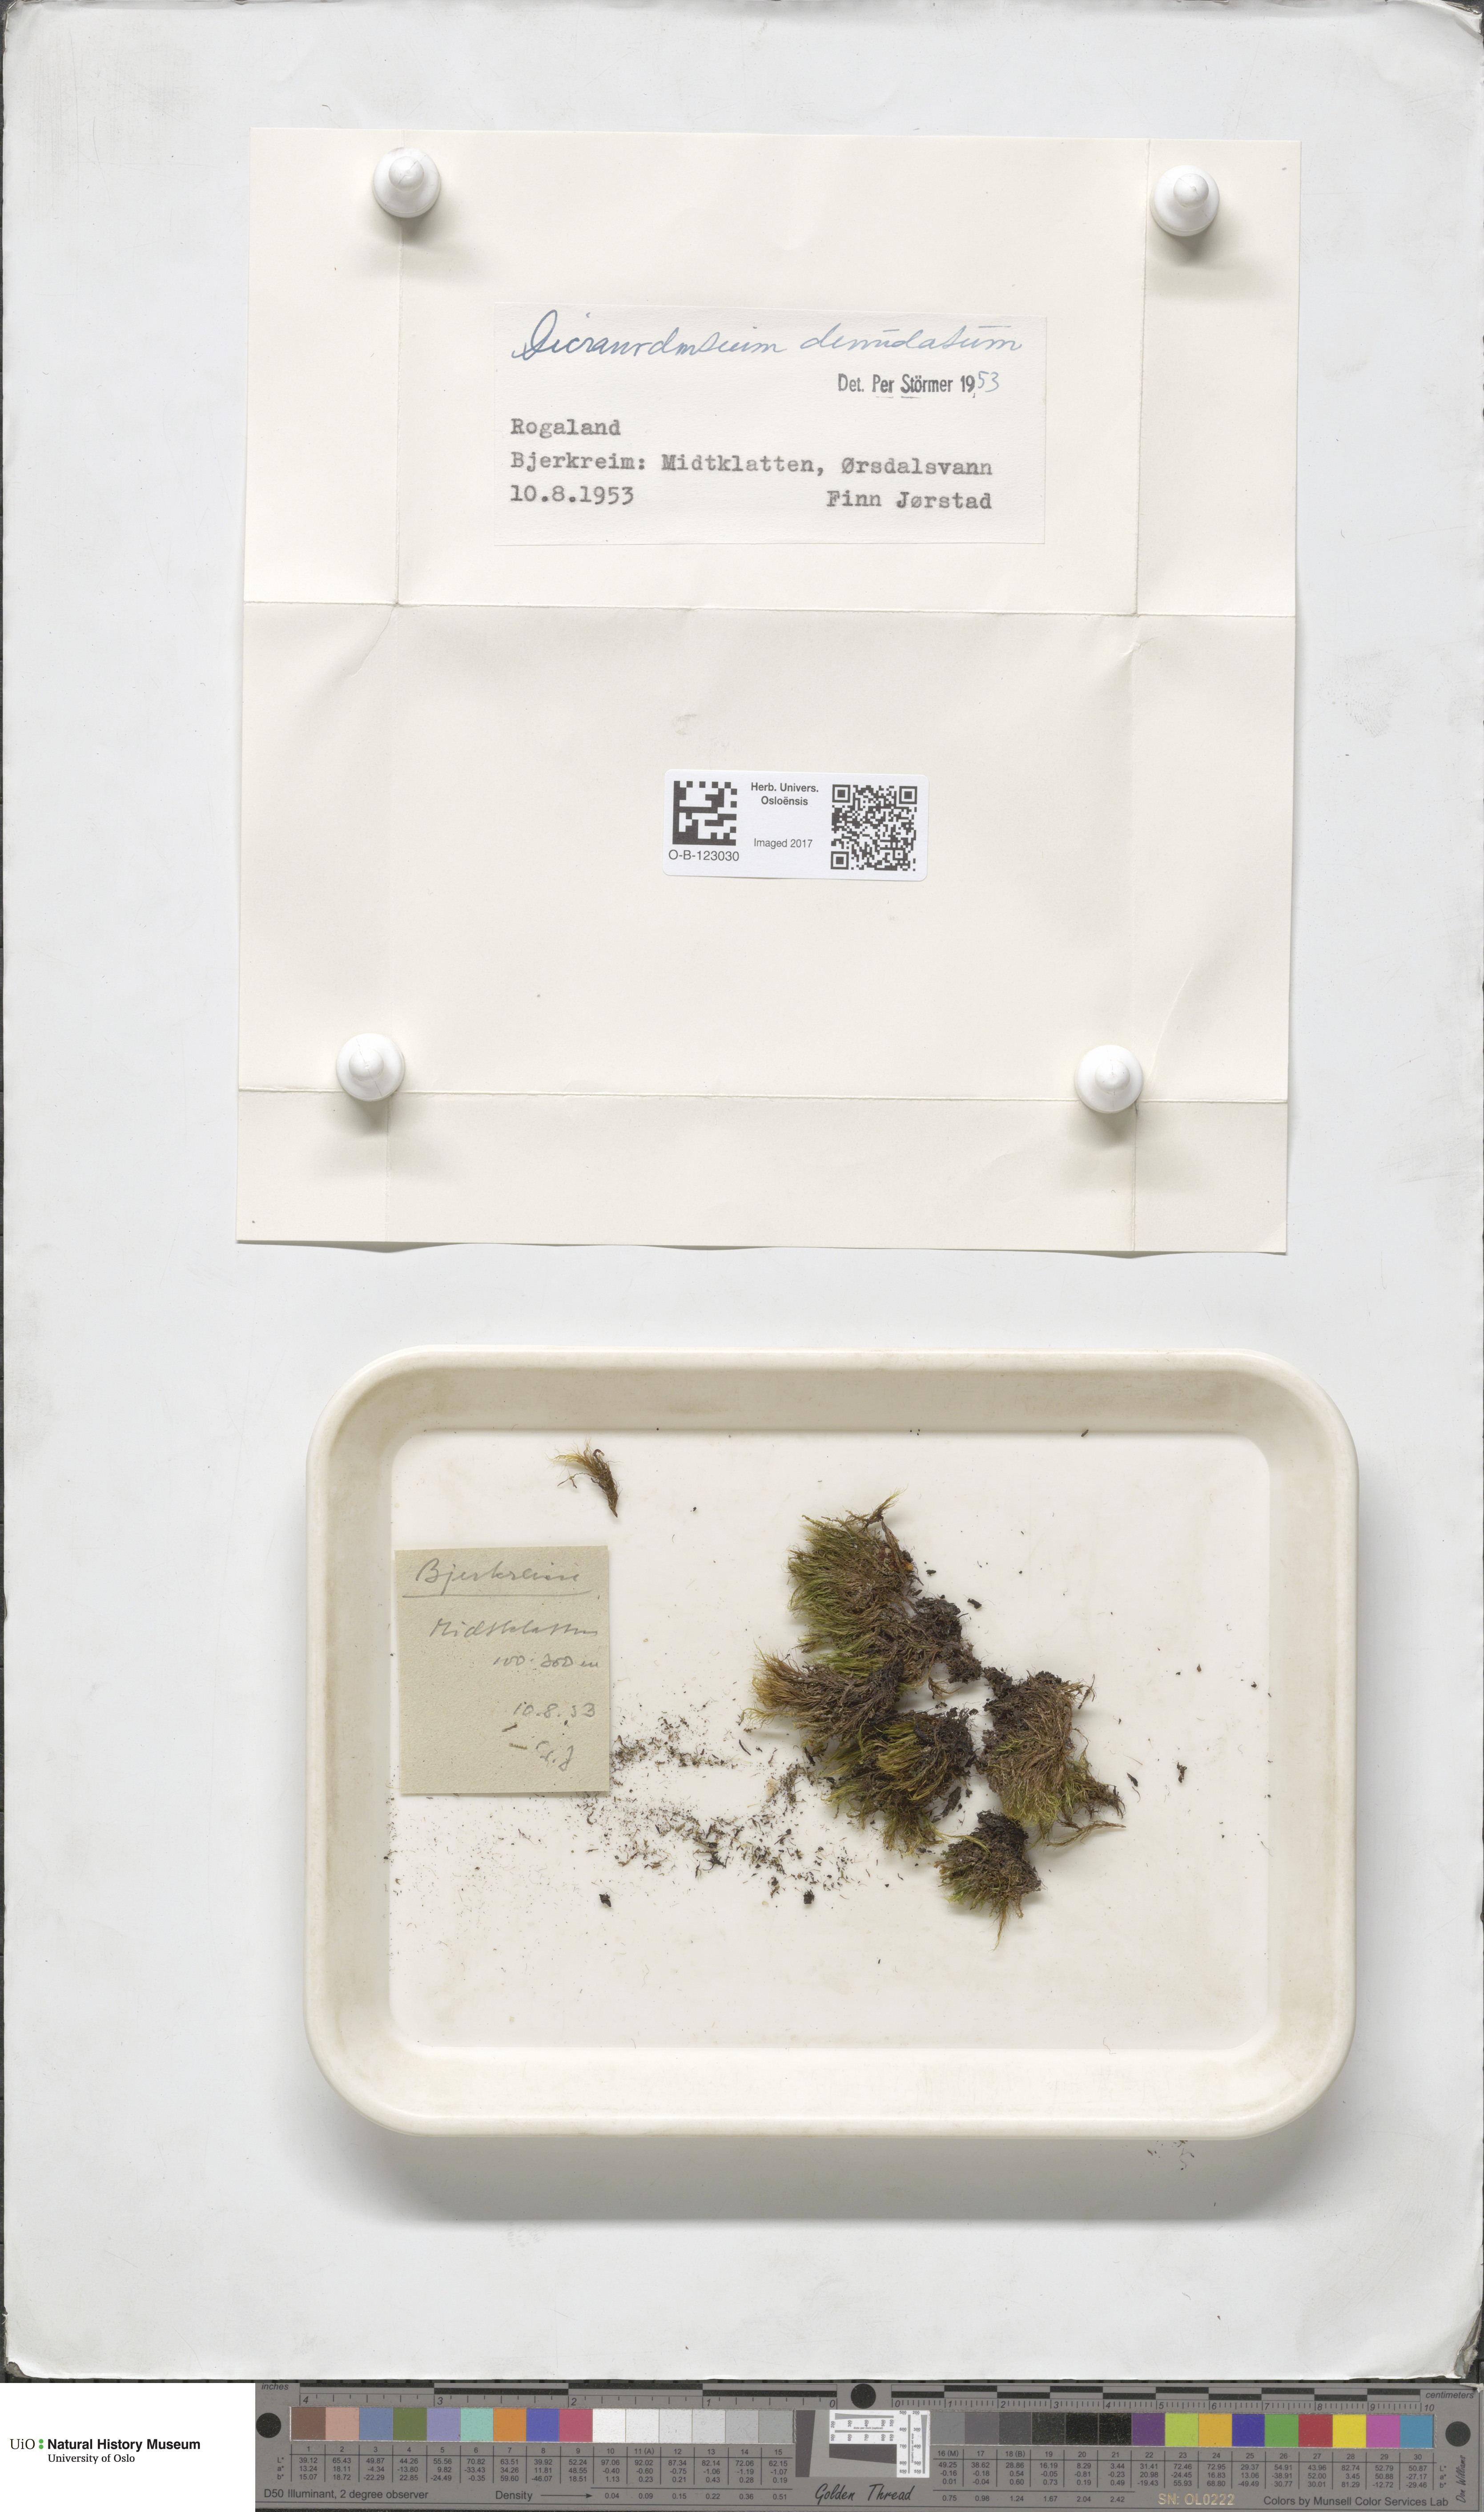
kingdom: Plantae
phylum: Bryophyta
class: Bryopsida
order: Dicranales
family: Leucobryaceae
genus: Dicranodontium
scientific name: Dicranodontium denudatum
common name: Beaked bow moss
